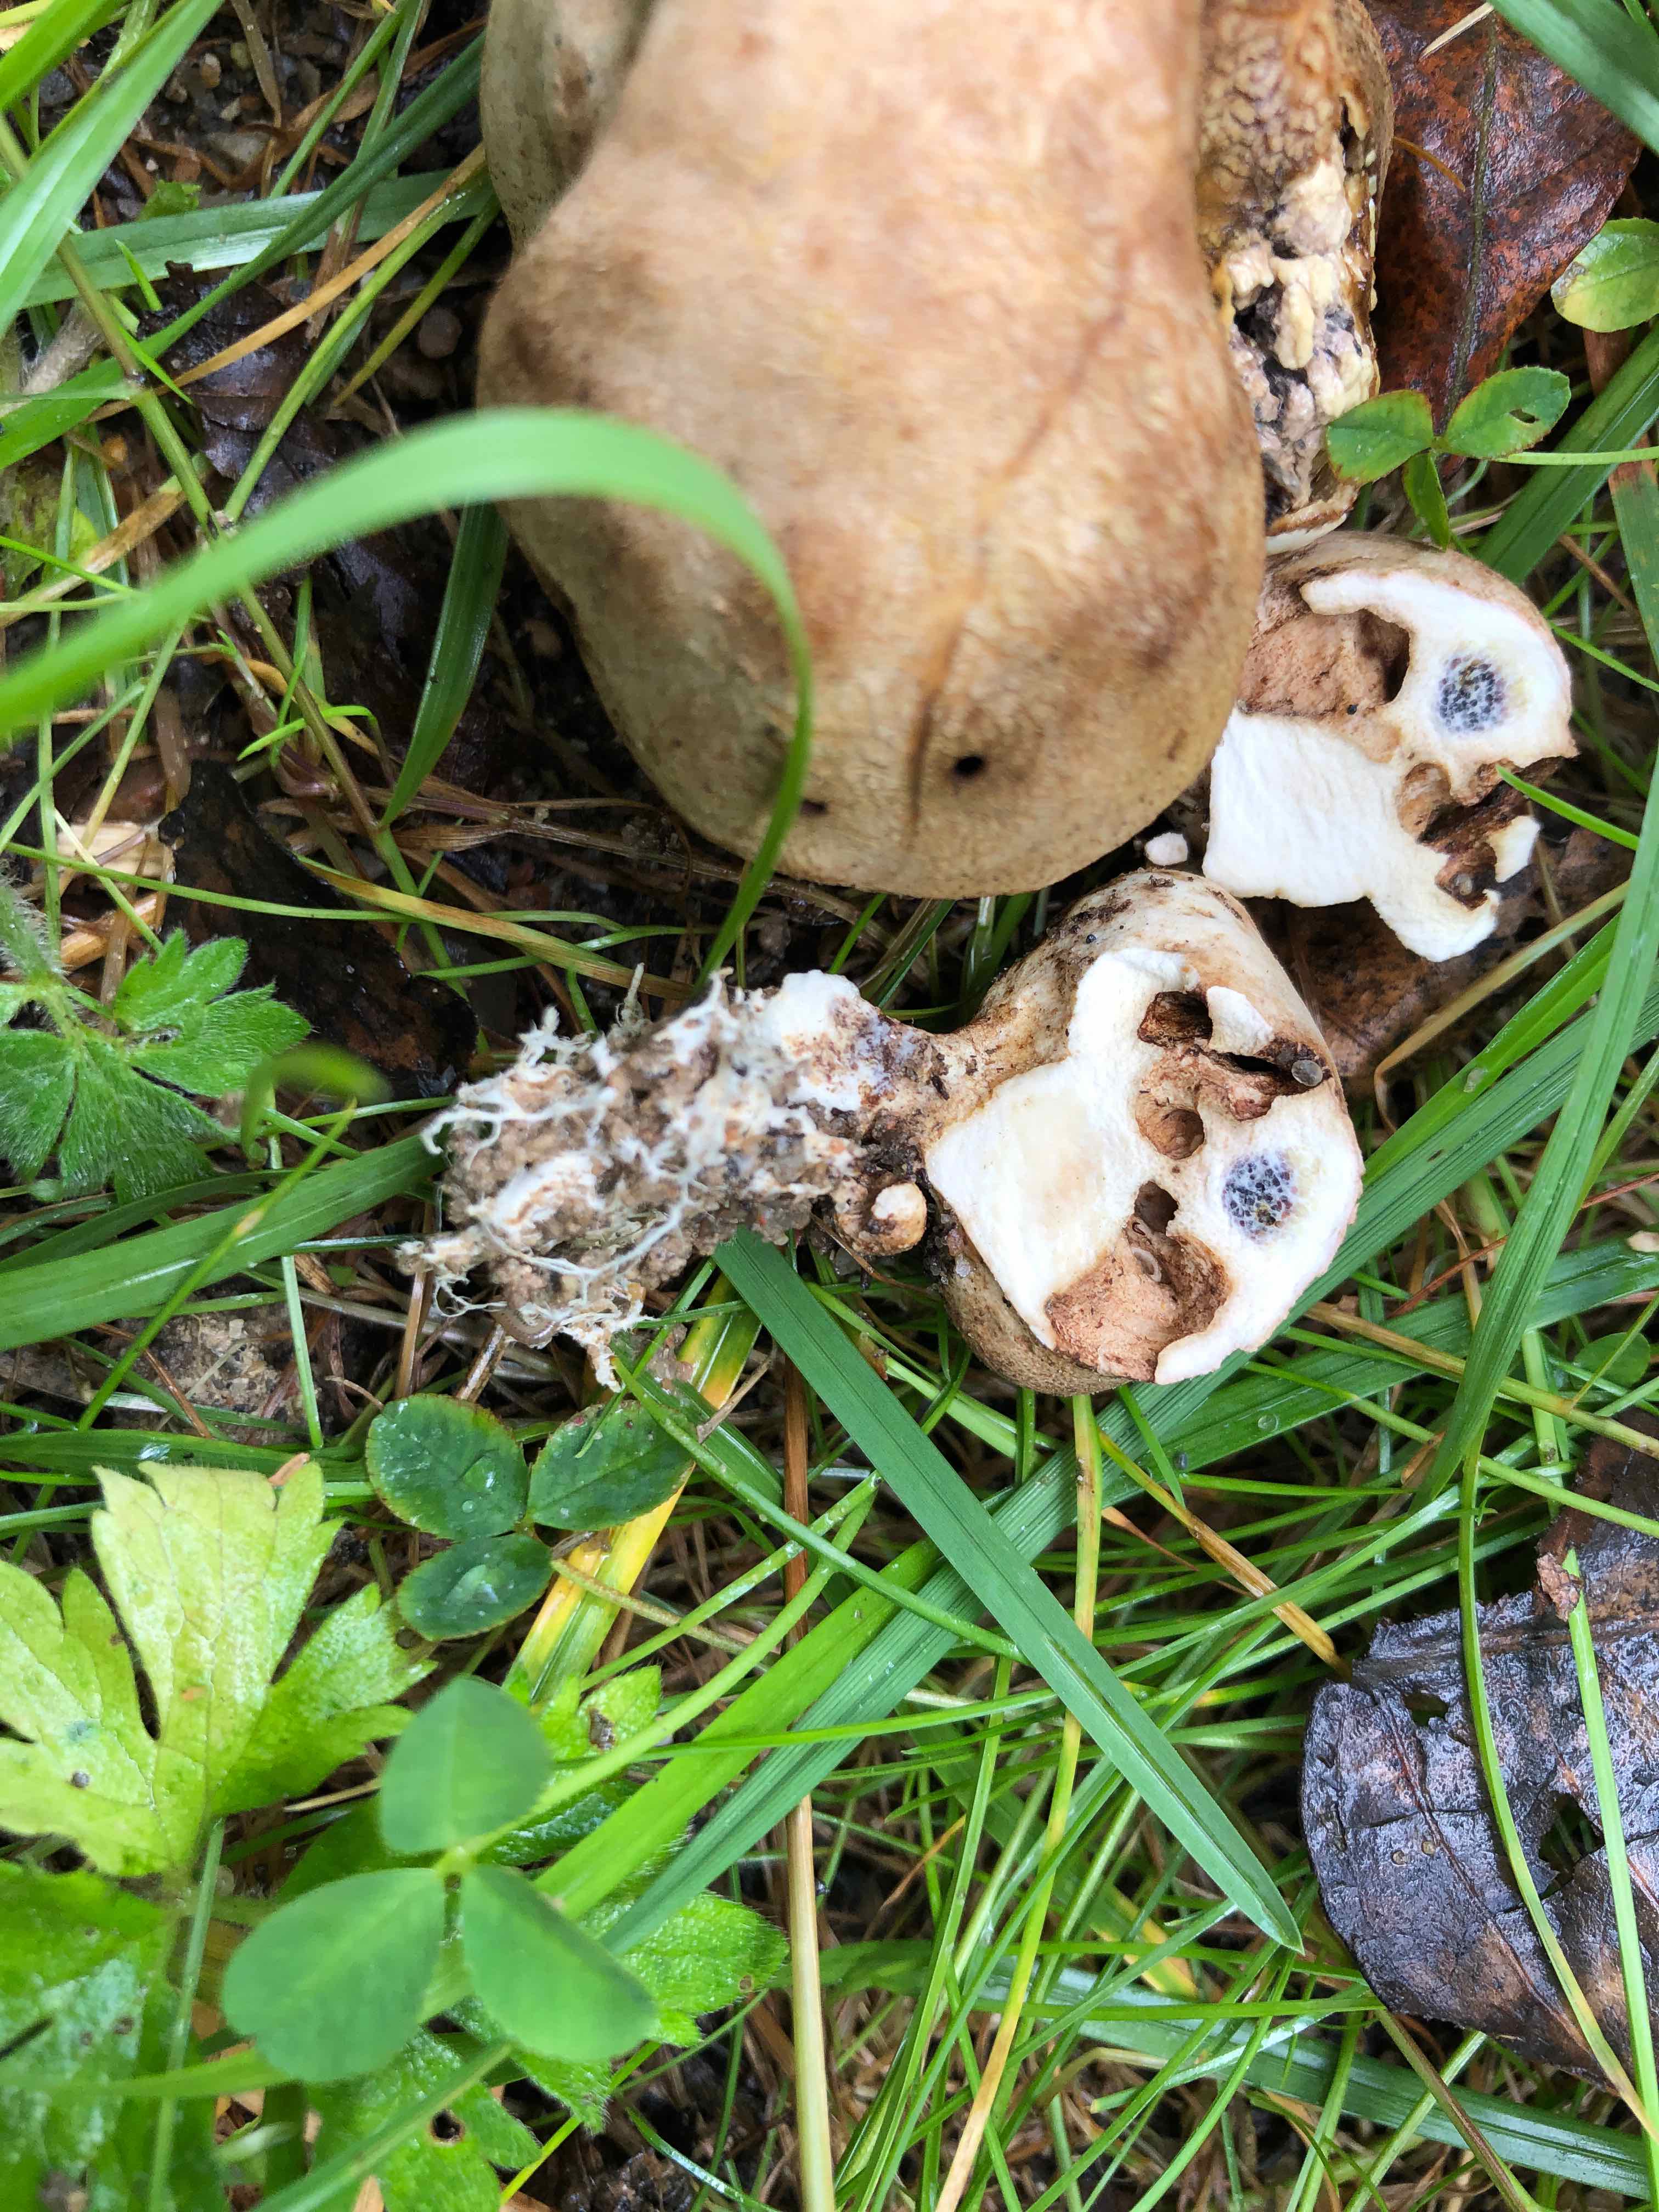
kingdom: Fungi
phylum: Basidiomycota
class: Agaricomycetes
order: Boletales
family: Sclerodermataceae
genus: Scleroderma
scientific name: Scleroderma verrucosum
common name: stilket bruskbold
